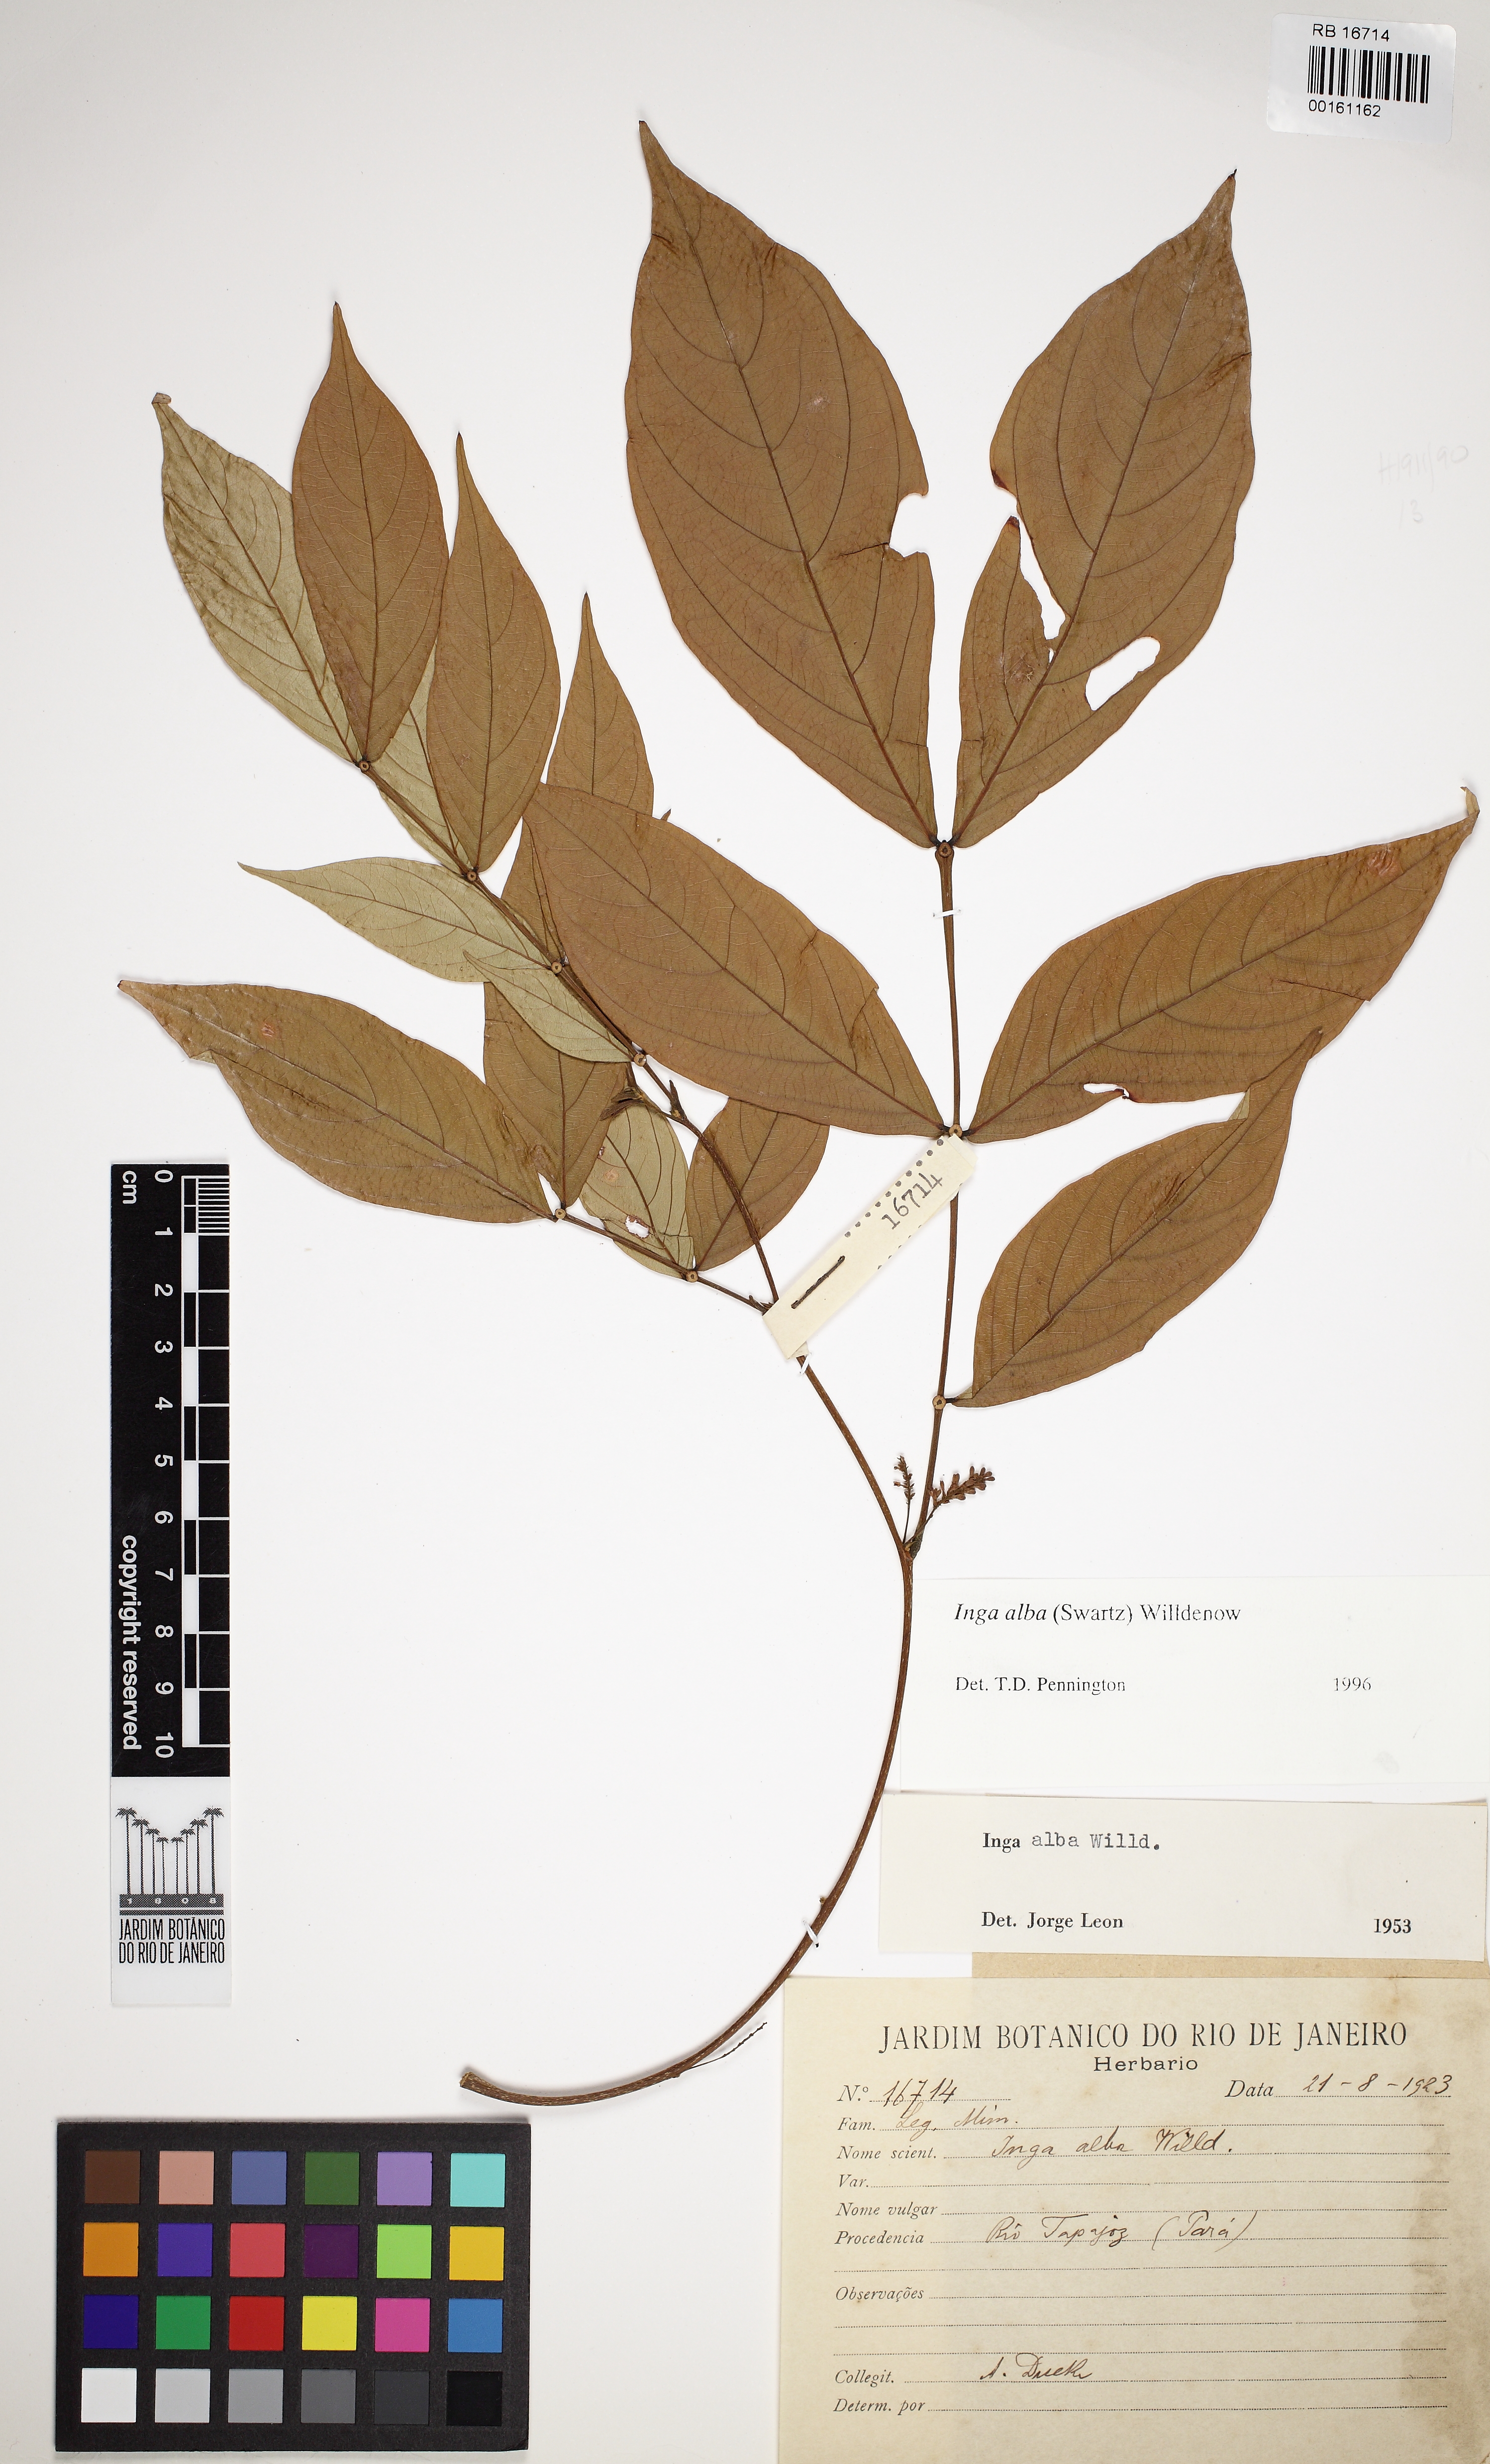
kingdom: Plantae
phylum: Tracheophyta
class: Magnoliopsida
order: Fabales
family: Fabaceae
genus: Inga
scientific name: Inga alba
